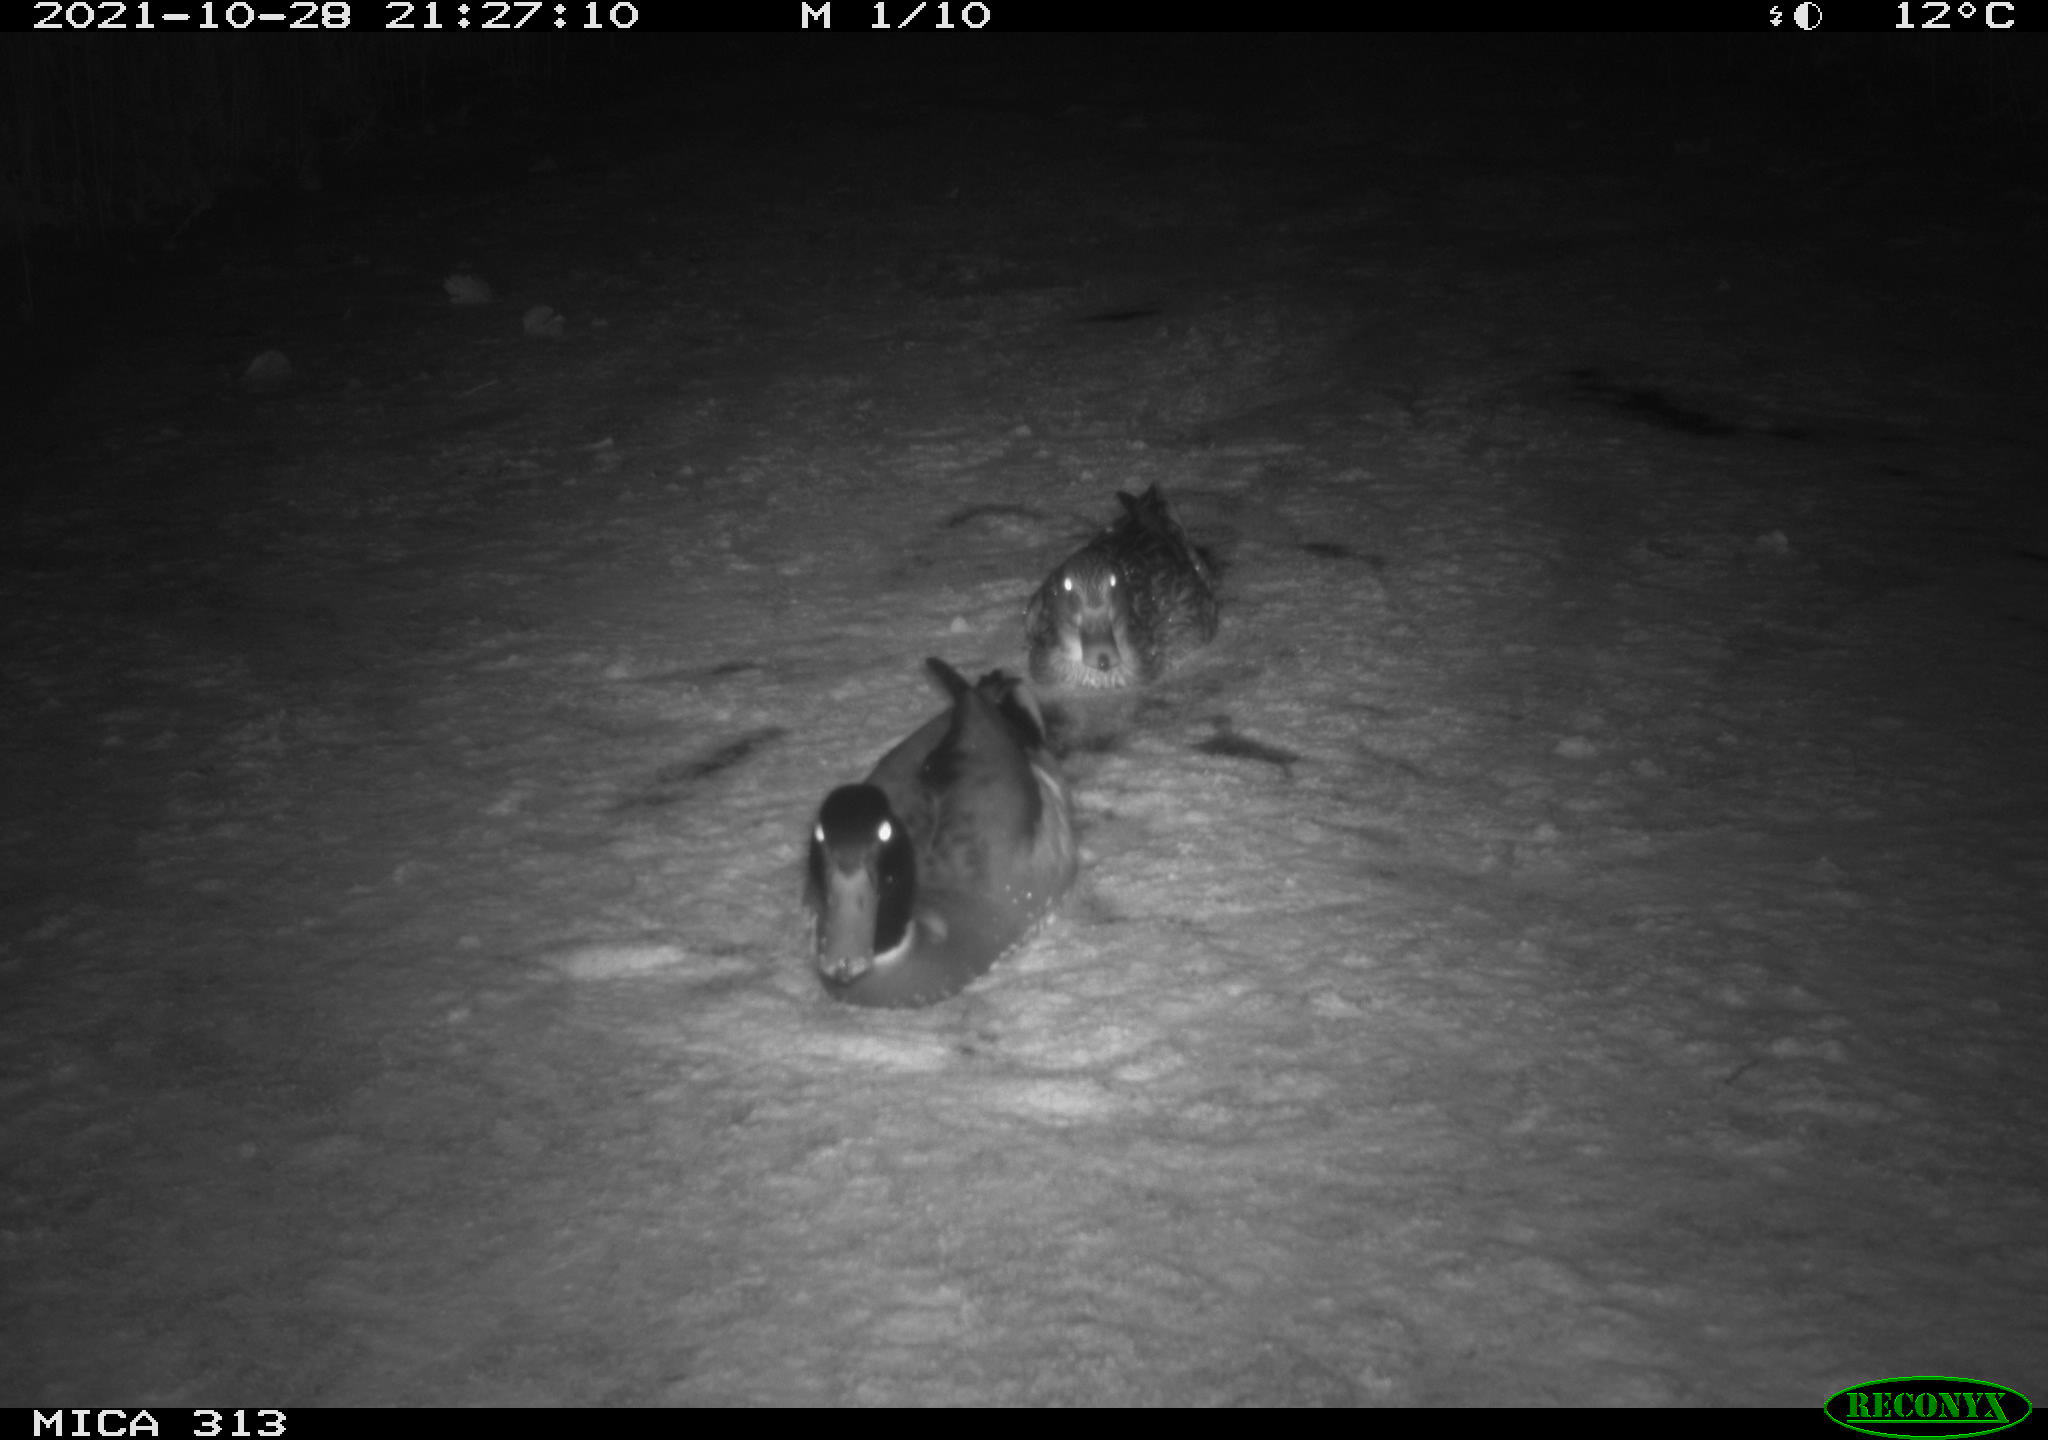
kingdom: Animalia
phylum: Chordata
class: Aves
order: Anseriformes
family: Anatidae
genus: Anas
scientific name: Anas platyrhynchos
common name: Mallard
